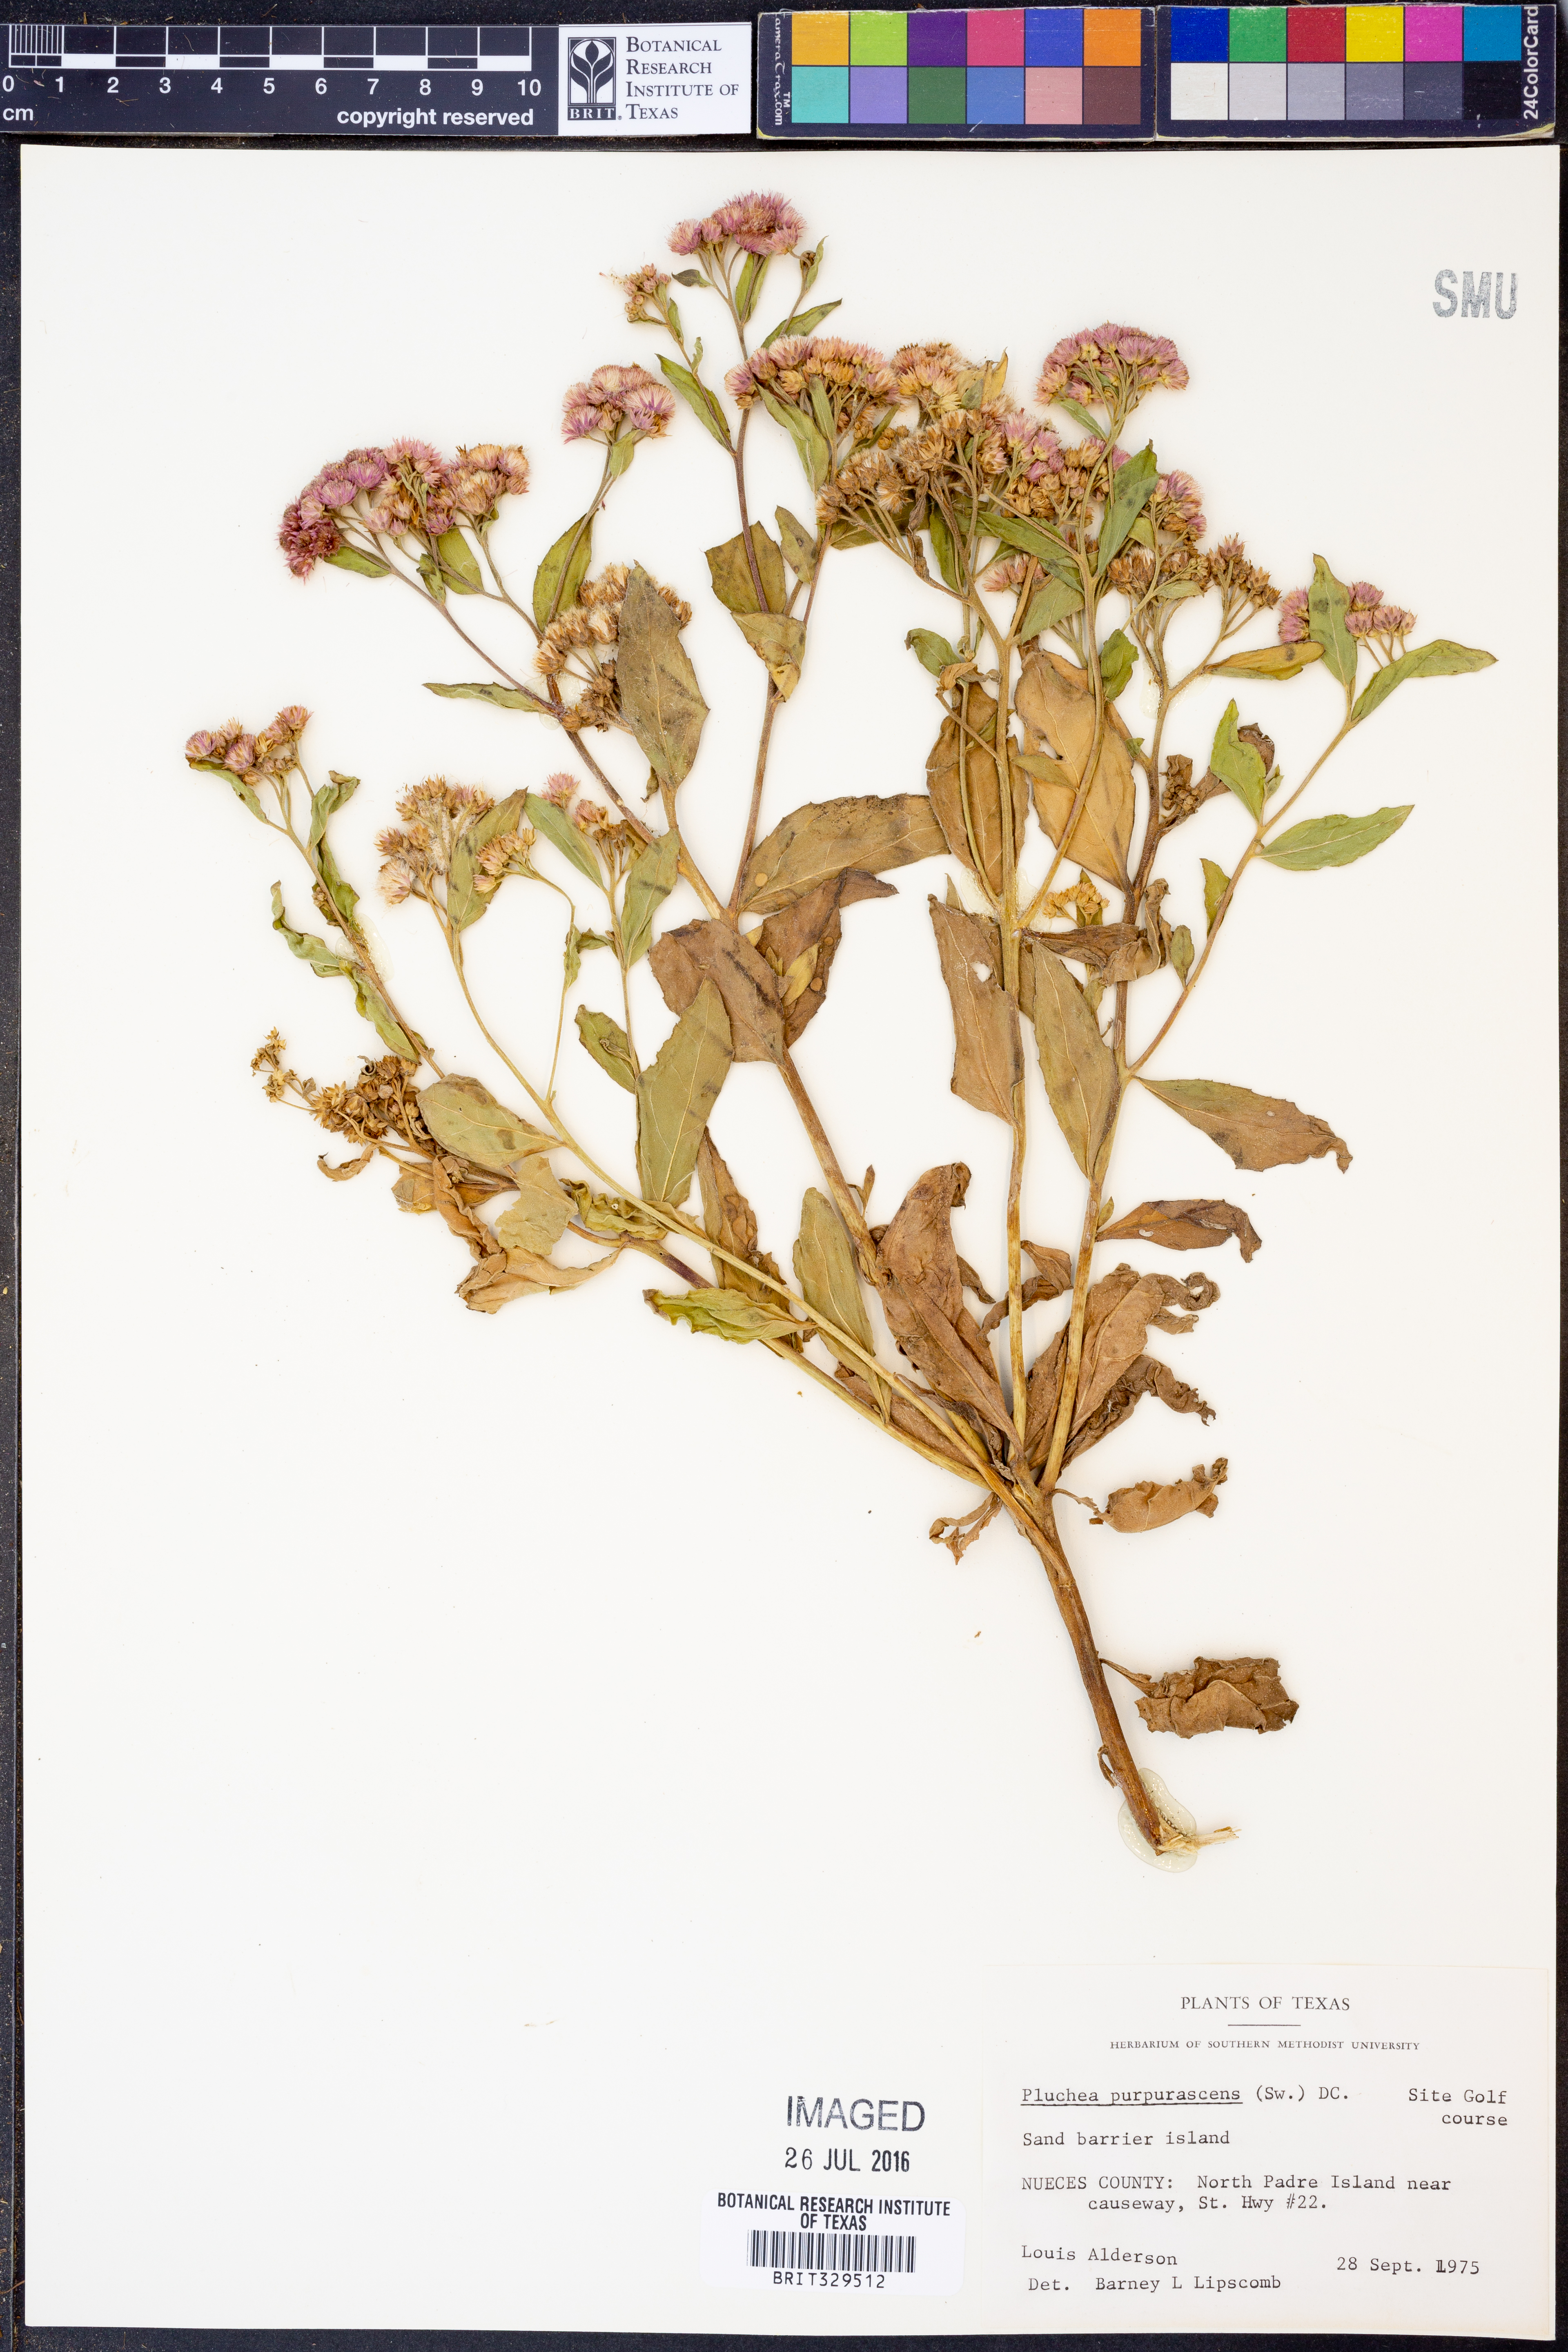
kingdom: Plantae
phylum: Tracheophyta
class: Magnoliopsida
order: Asterales
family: Asteraceae
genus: Pluchea
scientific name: Pluchea odorata
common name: Saltmarsh fleabane
